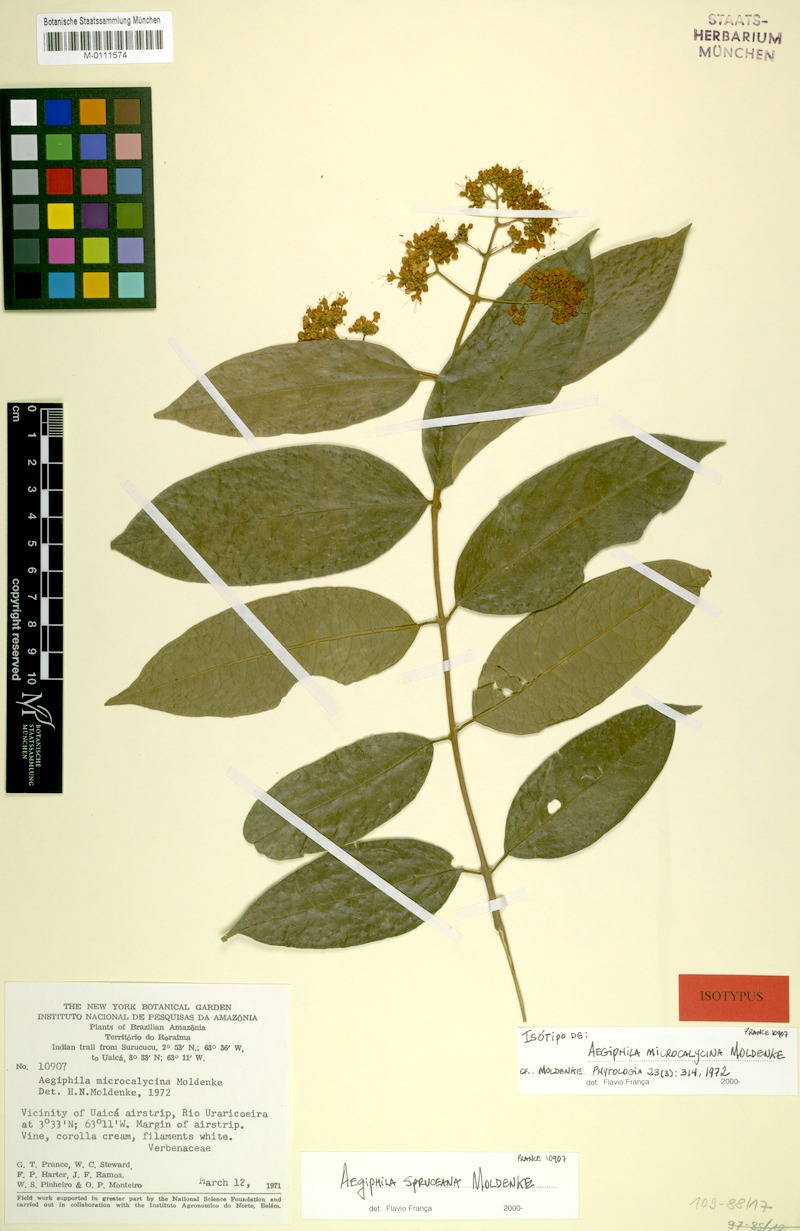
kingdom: Plantae
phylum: Tracheophyta
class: Magnoliopsida
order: Lamiales
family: Lamiaceae
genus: Aegiphila
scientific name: Aegiphila spruceana
